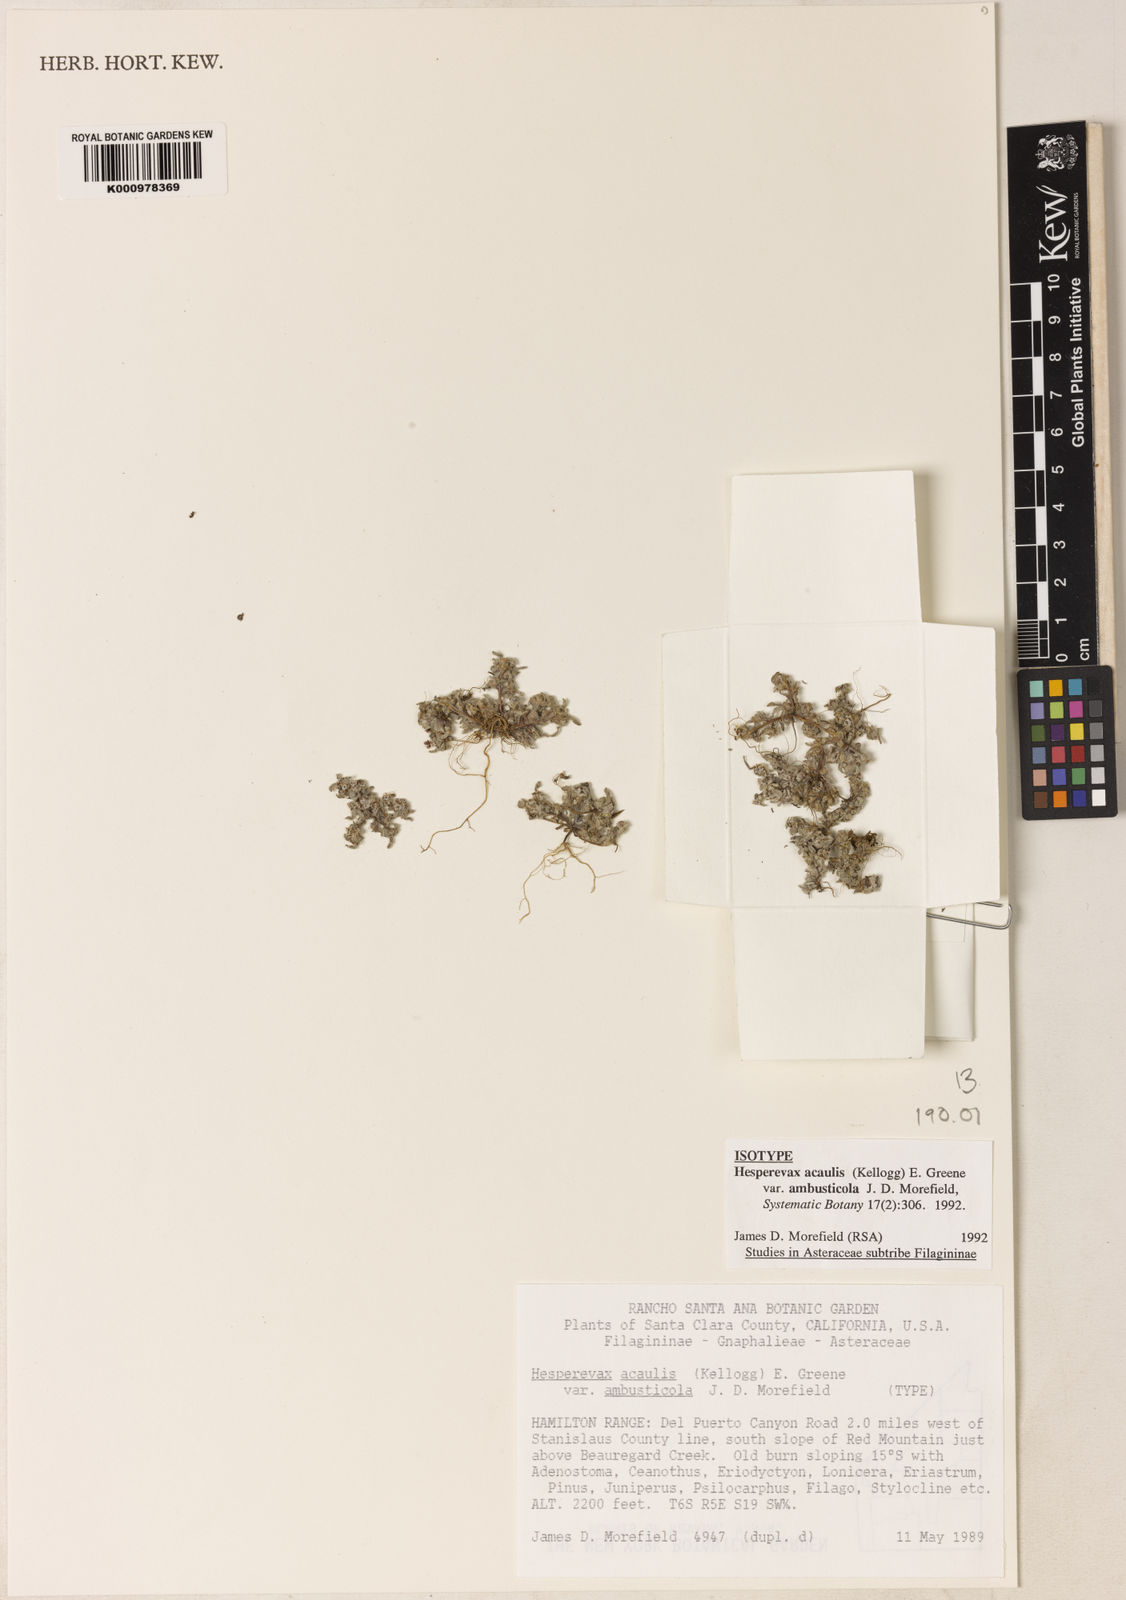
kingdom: Plantae
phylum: Tracheophyta
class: Magnoliopsida
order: Asterales
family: Asteraceae
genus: Hesperevax
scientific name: Hesperevax acaulis
